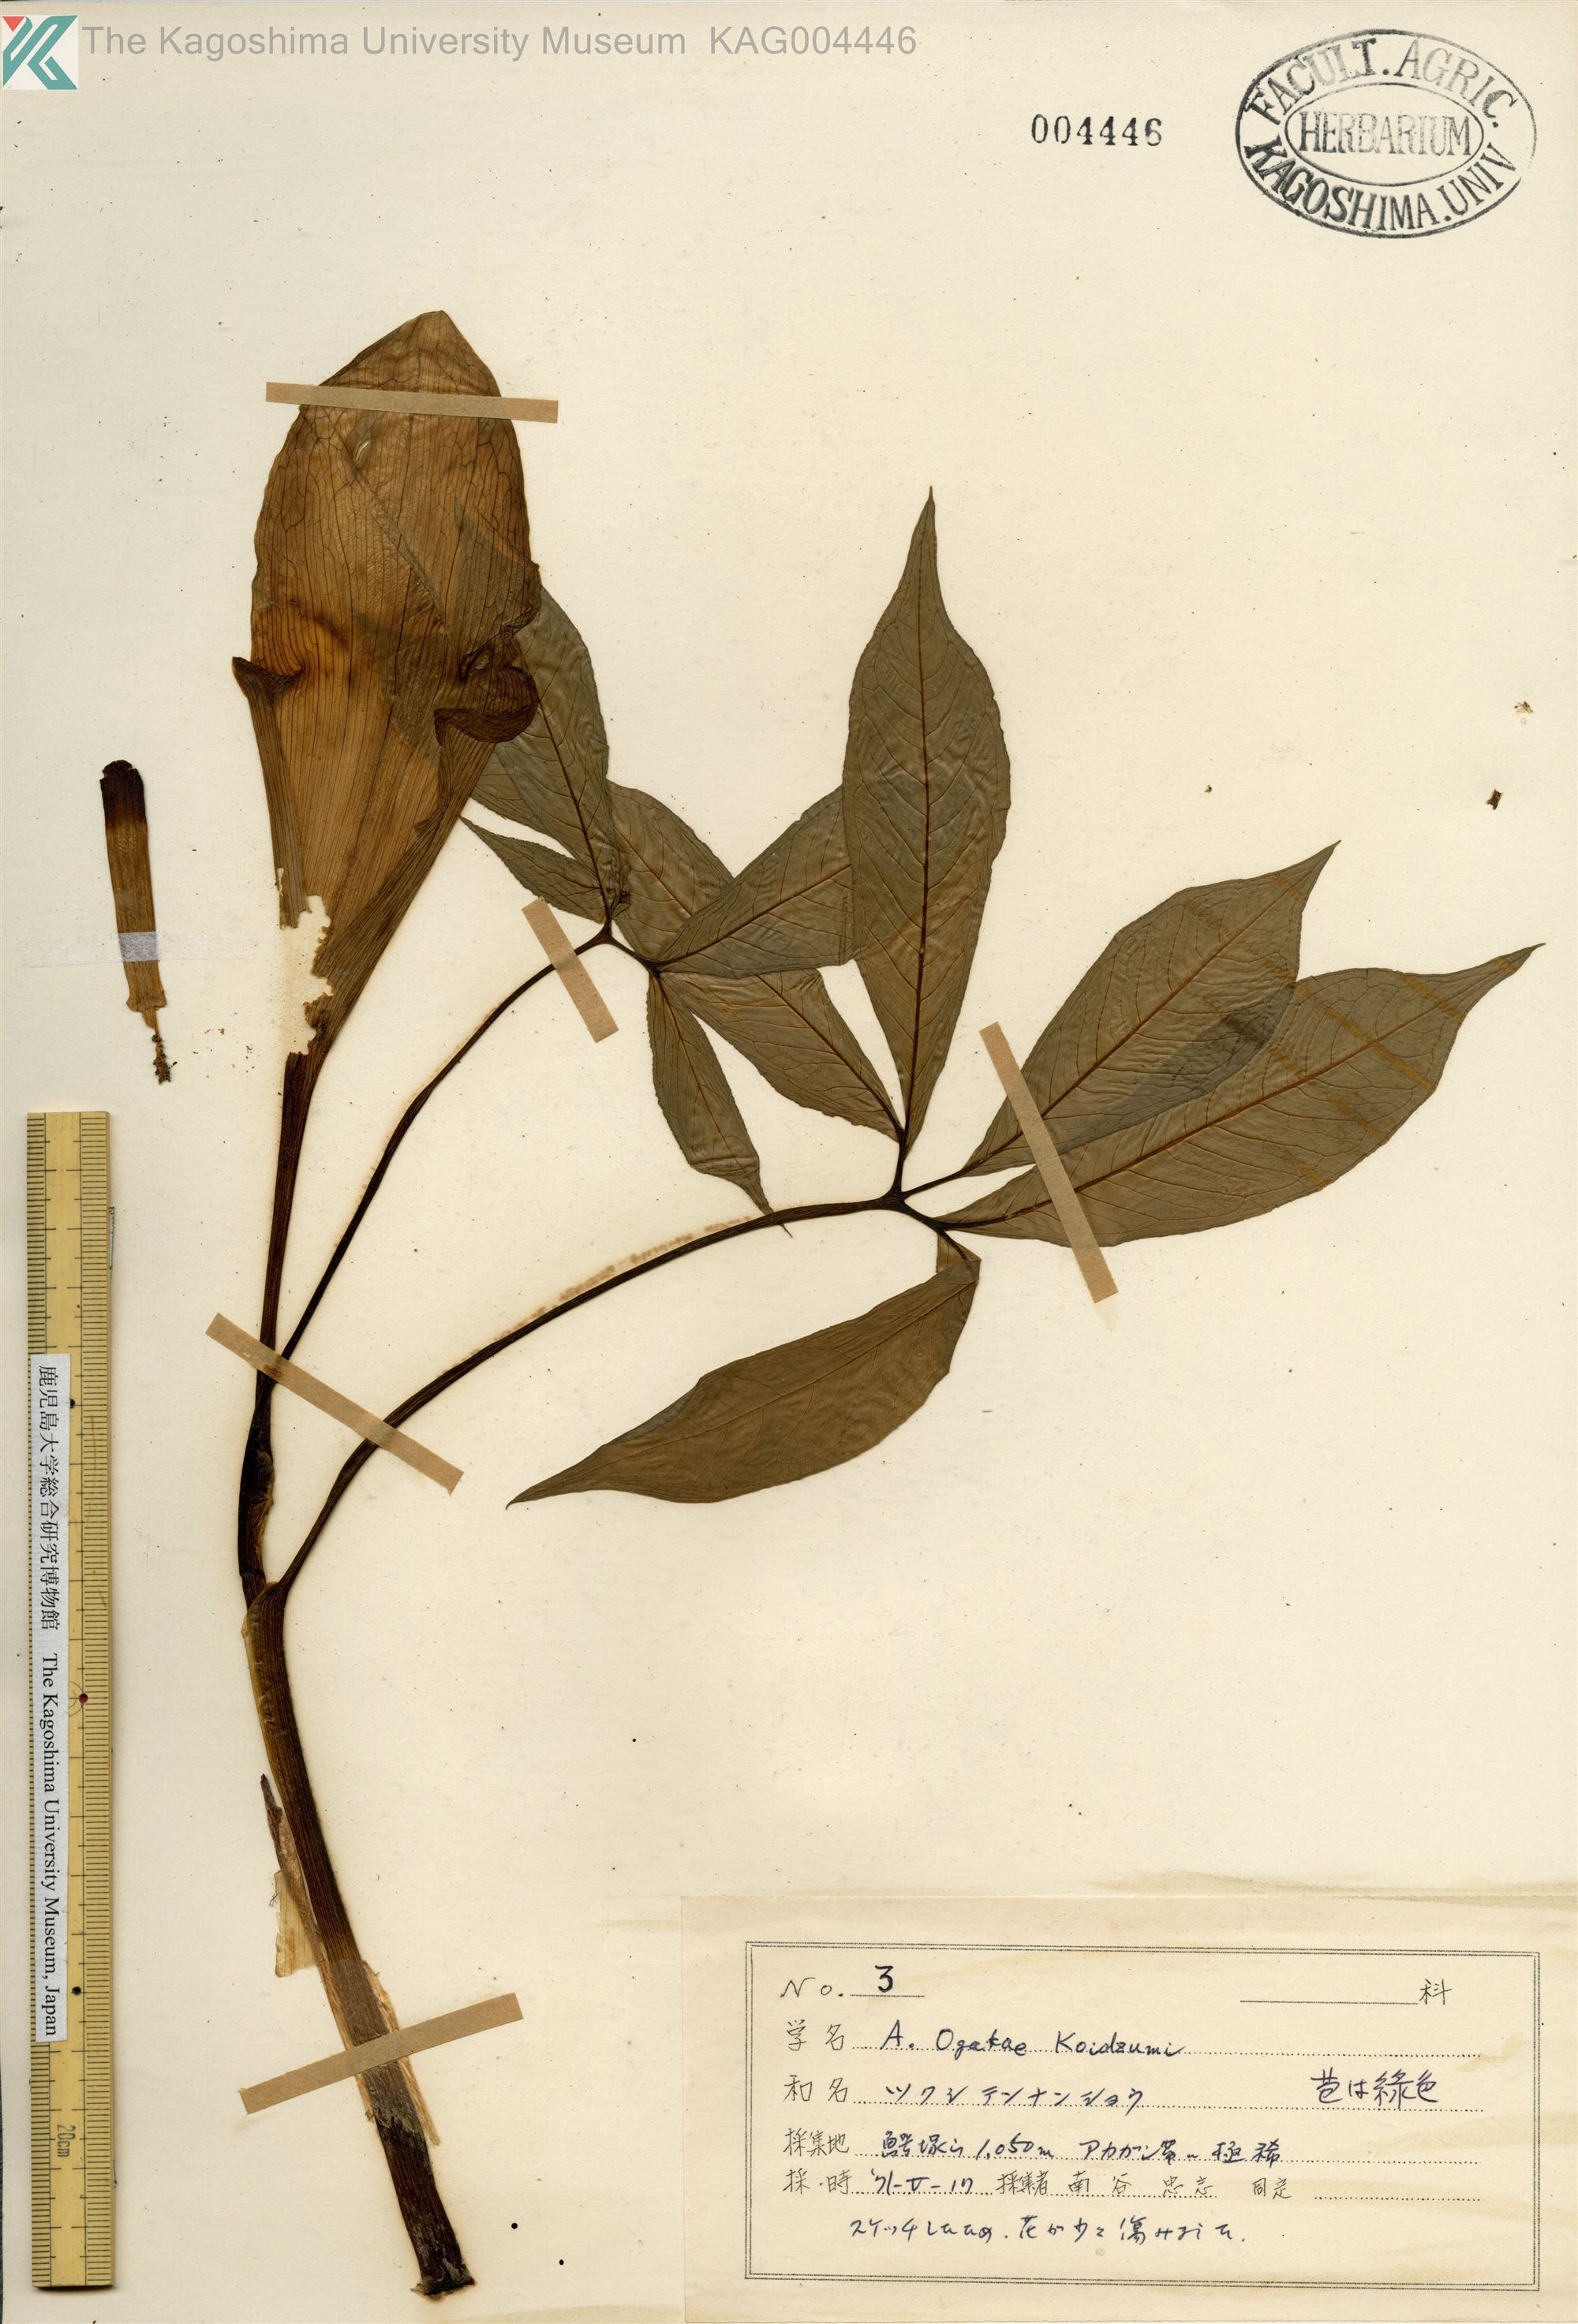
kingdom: Plantae
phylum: Tracheophyta
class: Liliopsida
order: Alismatales
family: Araceae
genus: Arisaema
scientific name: Arisaema ogatae
